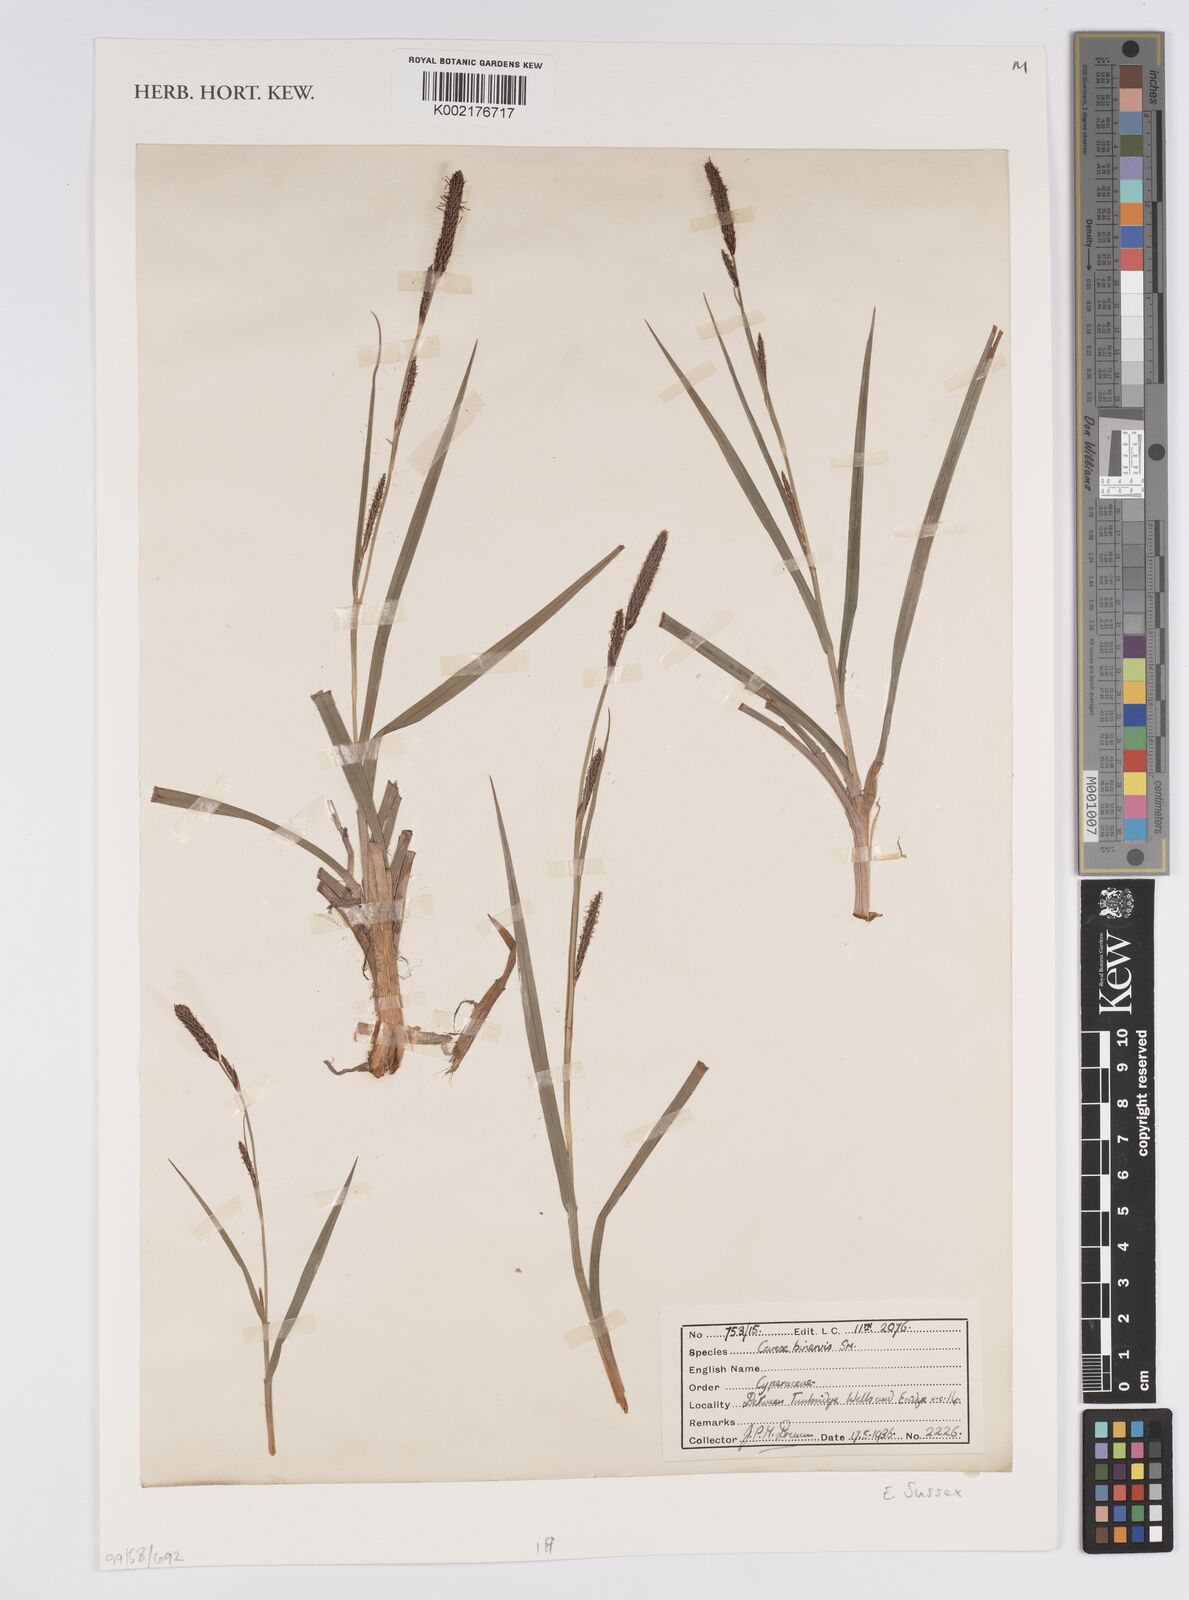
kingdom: Plantae
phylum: Tracheophyta
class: Liliopsida
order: Poales
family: Cyperaceae
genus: Carex
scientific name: Carex binervis
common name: Green-ribbed sedge
